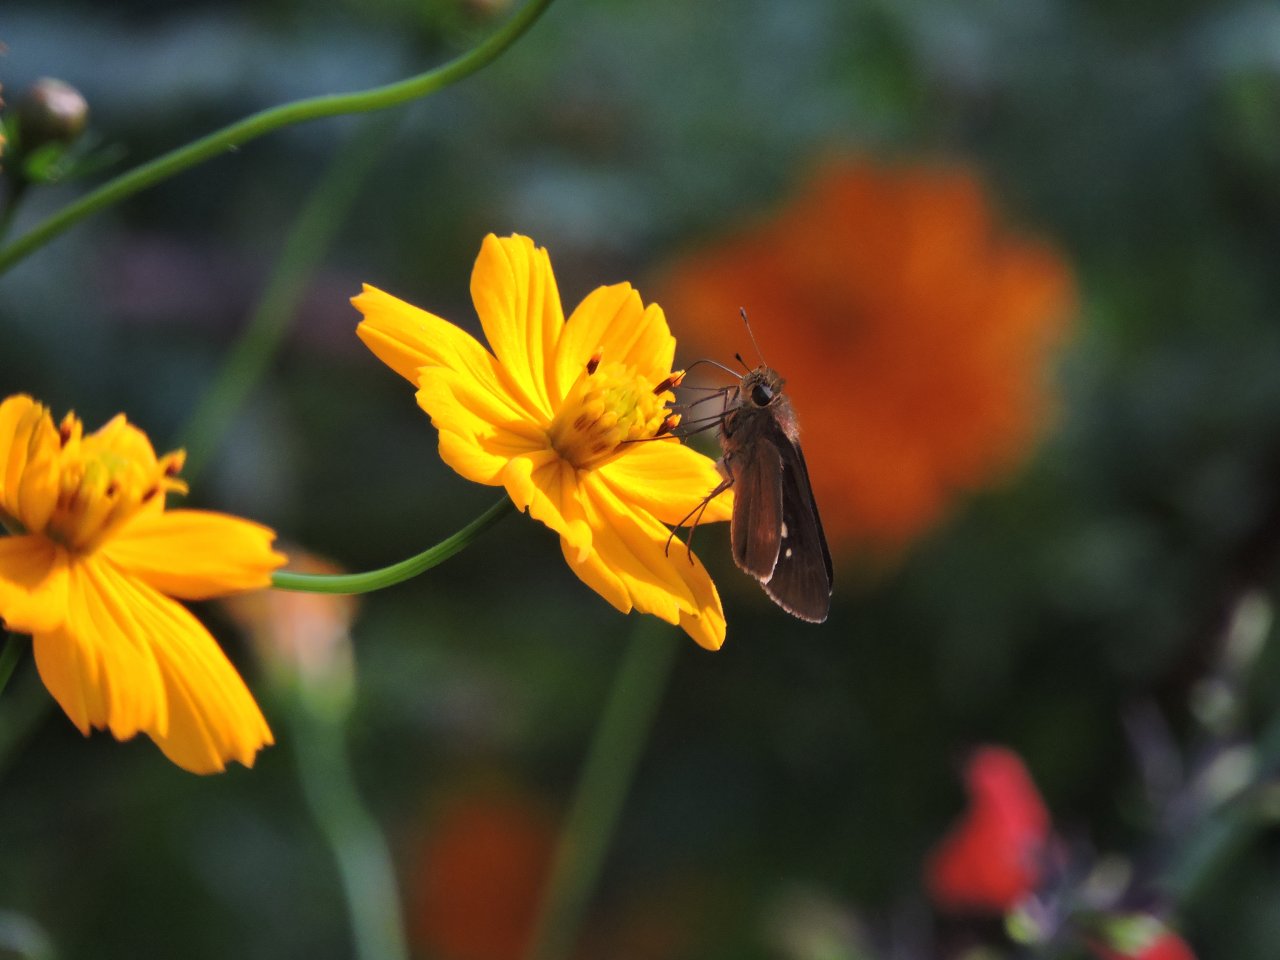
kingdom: Animalia
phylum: Arthropoda
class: Insecta
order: Lepidoptera
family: Hesperiidae
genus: Panoquina
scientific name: Panoquina ocola
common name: Ocola Skipper
